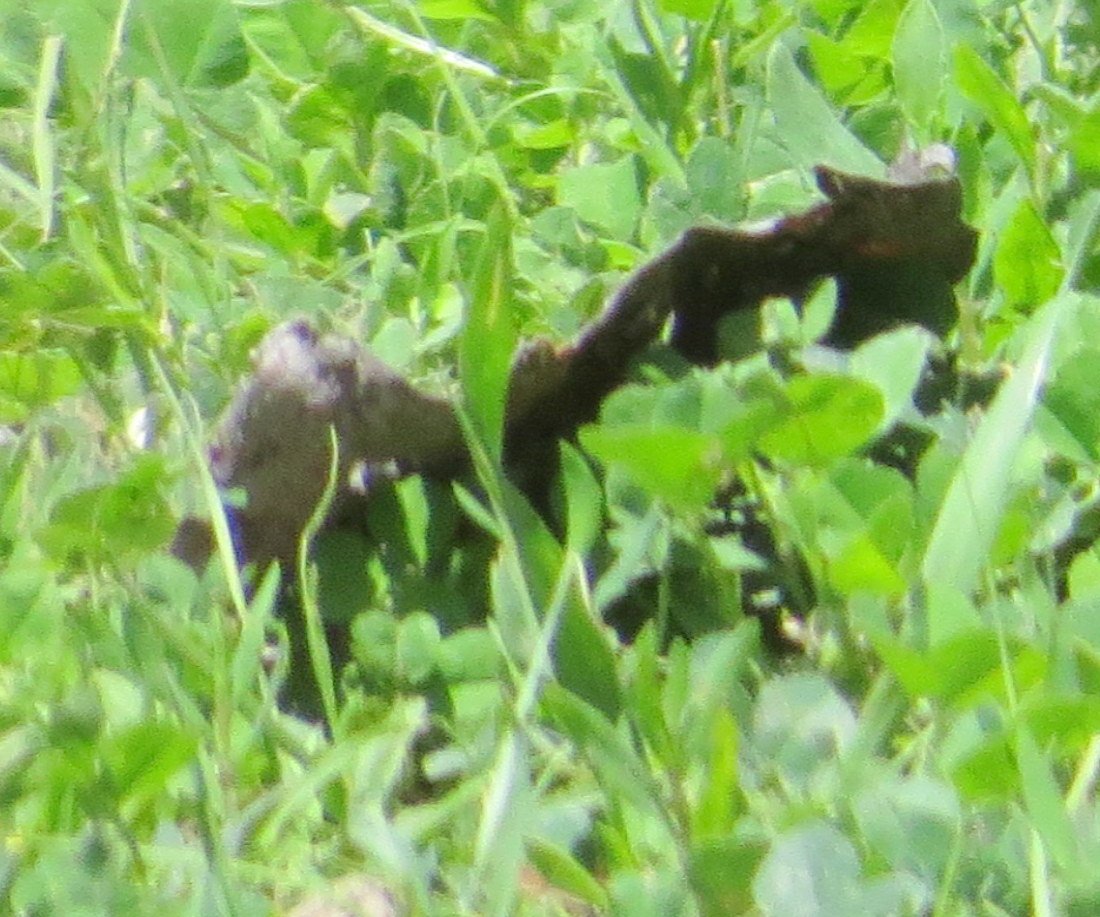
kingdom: Animalia
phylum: Arthropoda
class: Insecta
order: Lepidoptera
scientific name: Lepidoptera
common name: Butterflies
